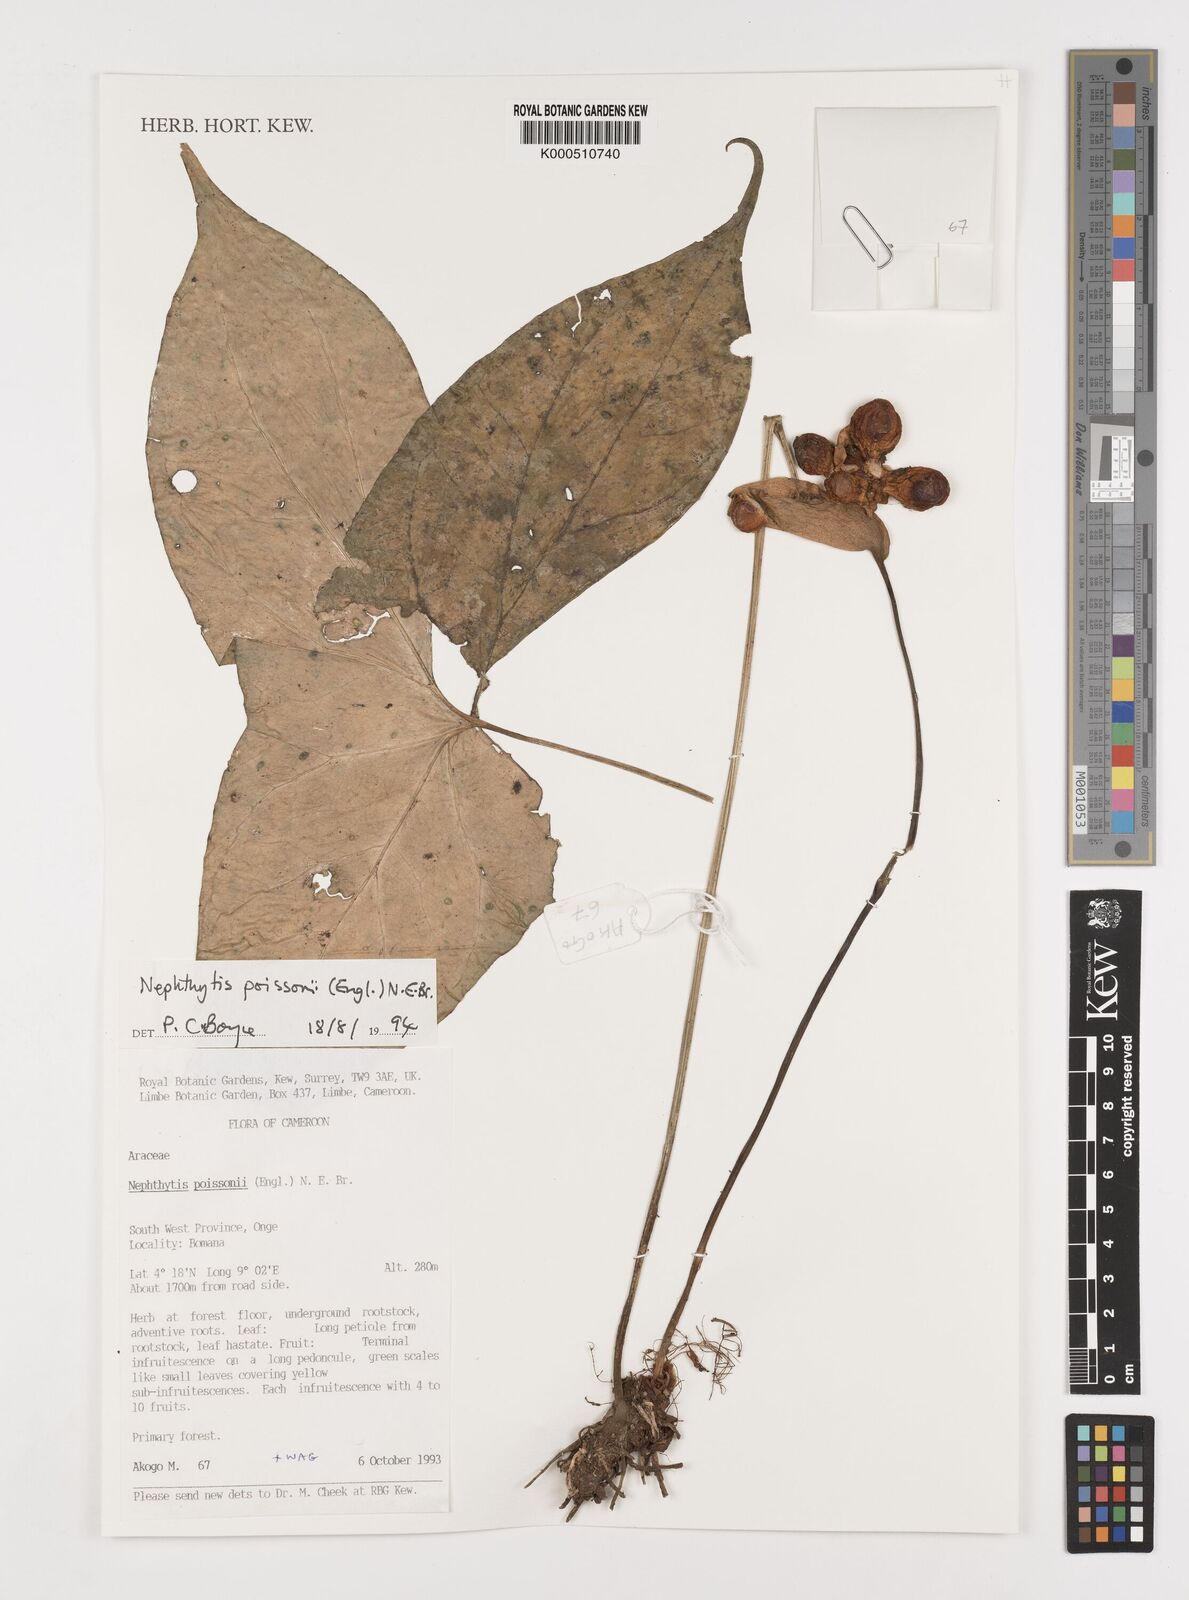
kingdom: Plantae
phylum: Tracheophyta
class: Liliopsida
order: Alismatales
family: Araceae
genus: Nephthytis
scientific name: Nephthytis poissonii
